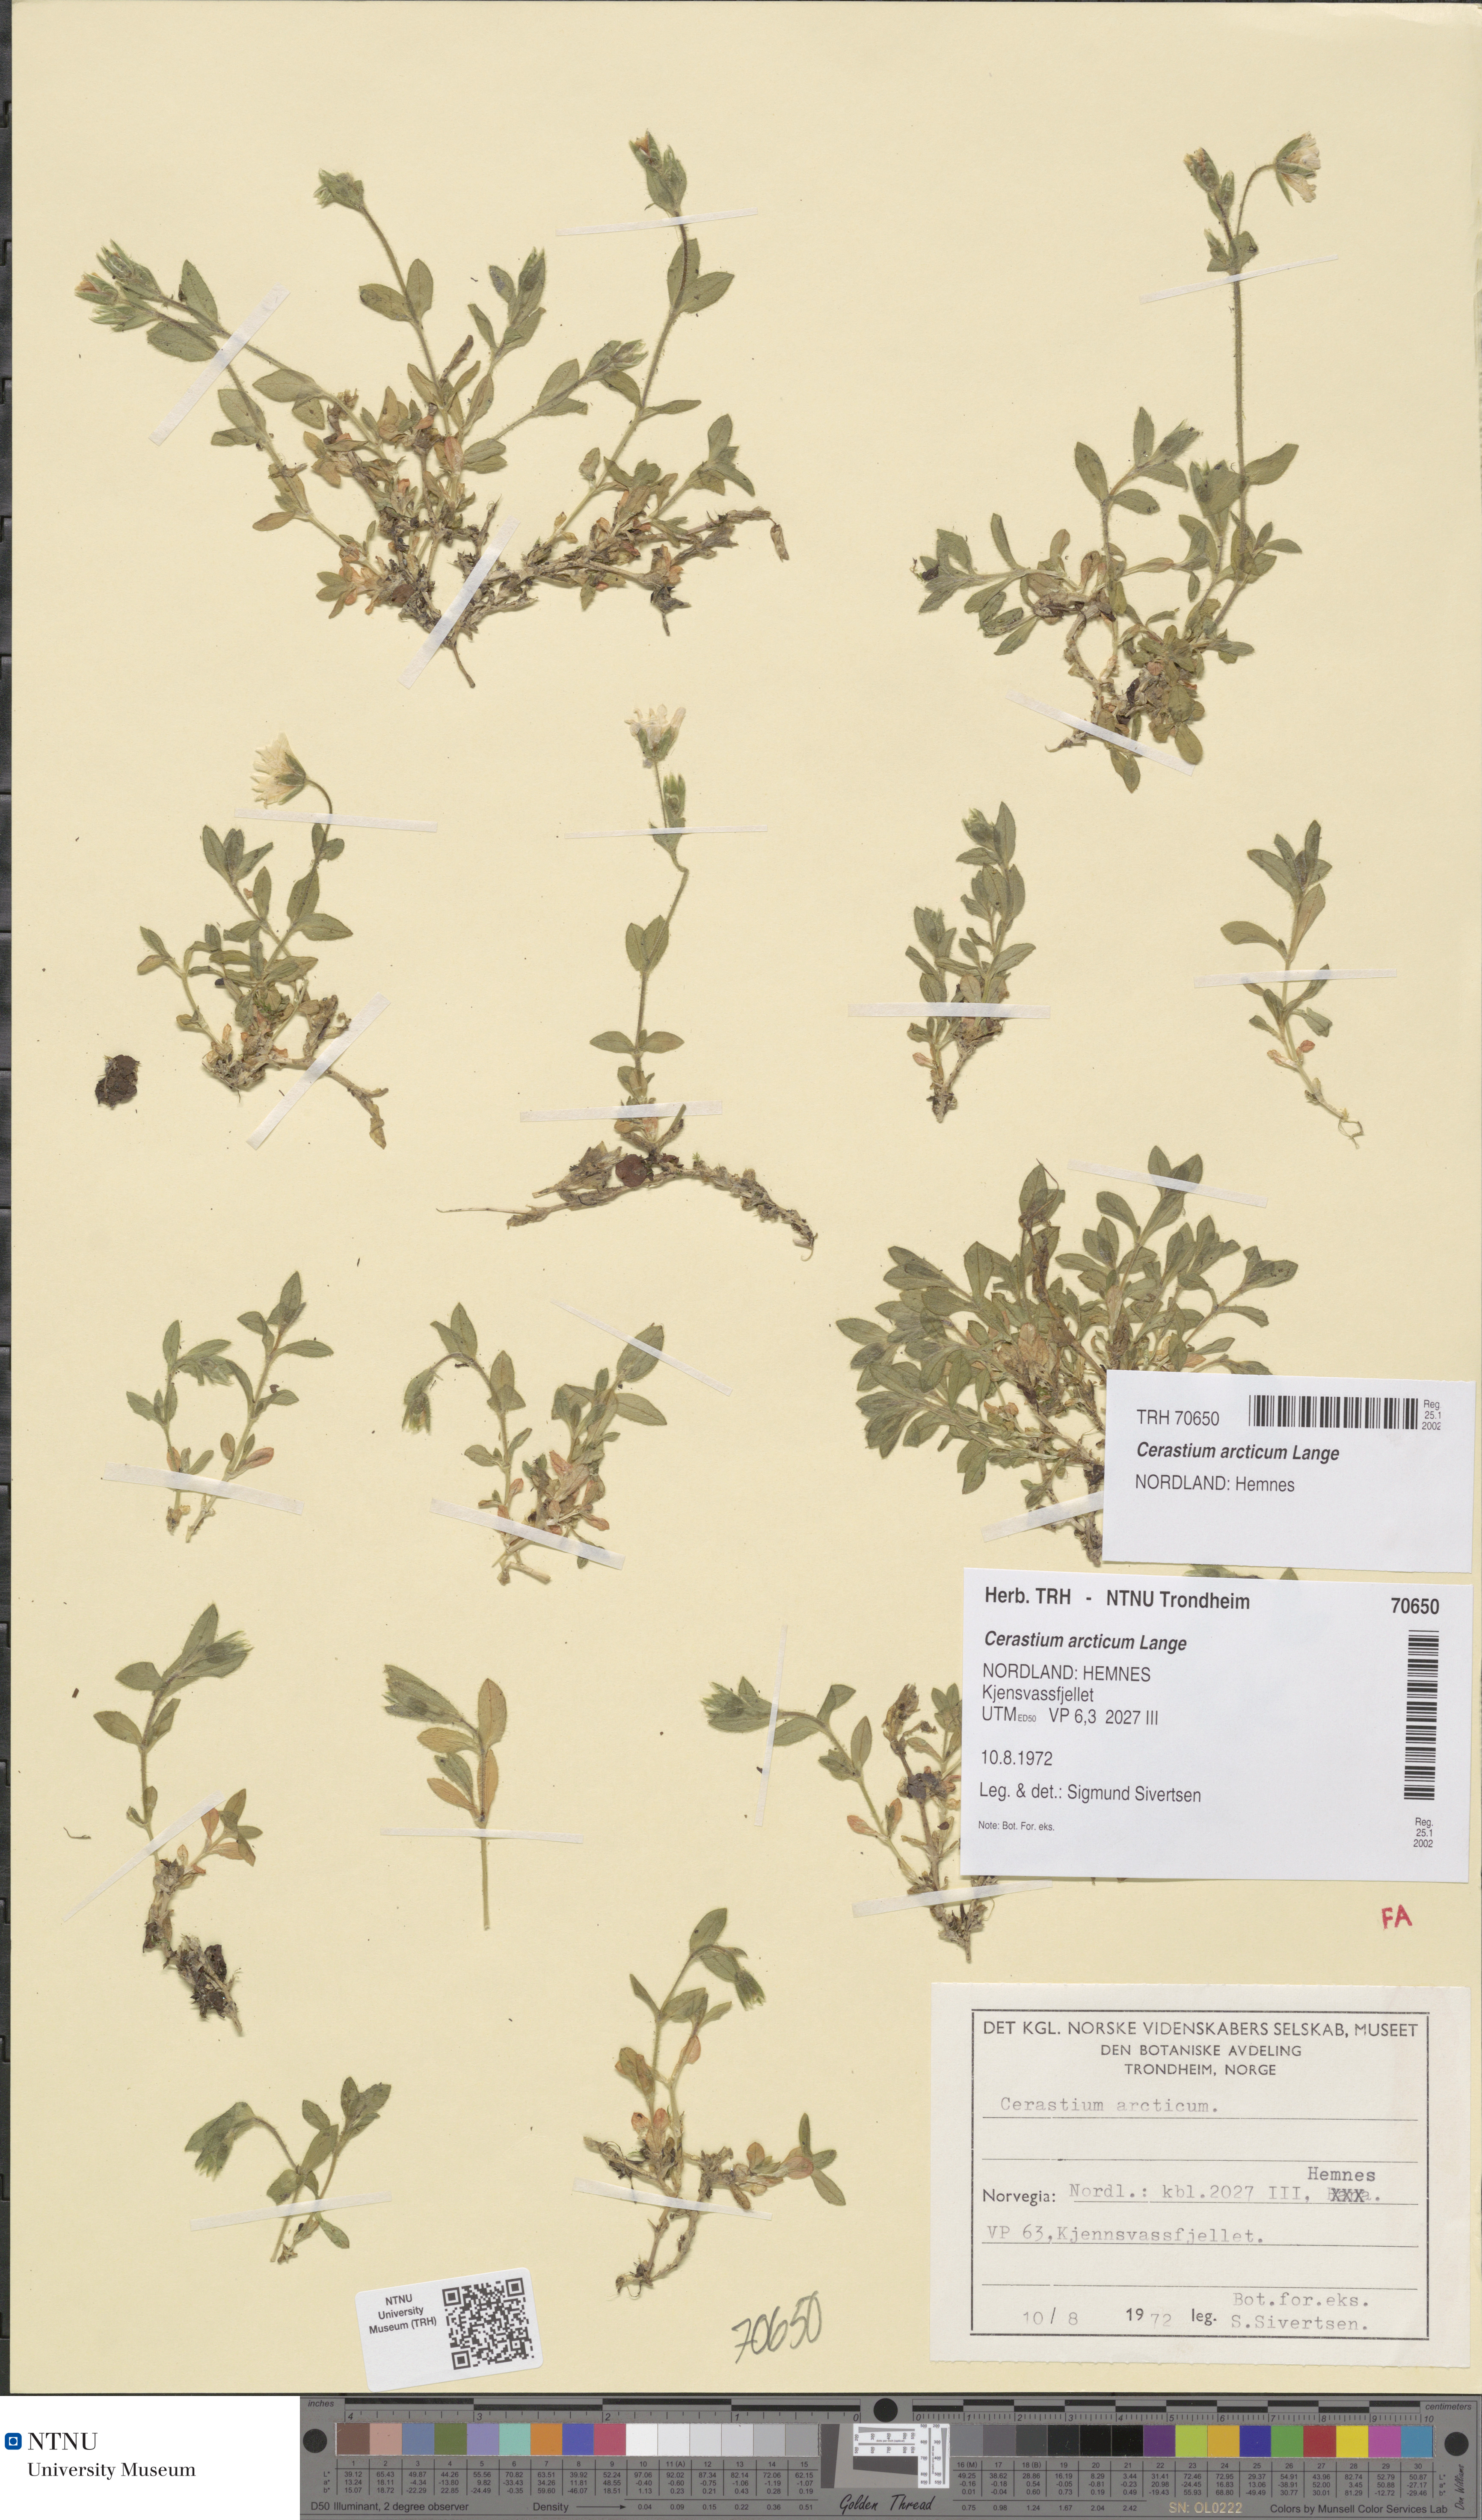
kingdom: Plantae
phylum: Tracheophyta
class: Magnoliopsida
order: Caryophyllales
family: Caryophyllaceae
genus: Cerastium
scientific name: Cerastium nigrescens
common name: Shetland mouse-ear
